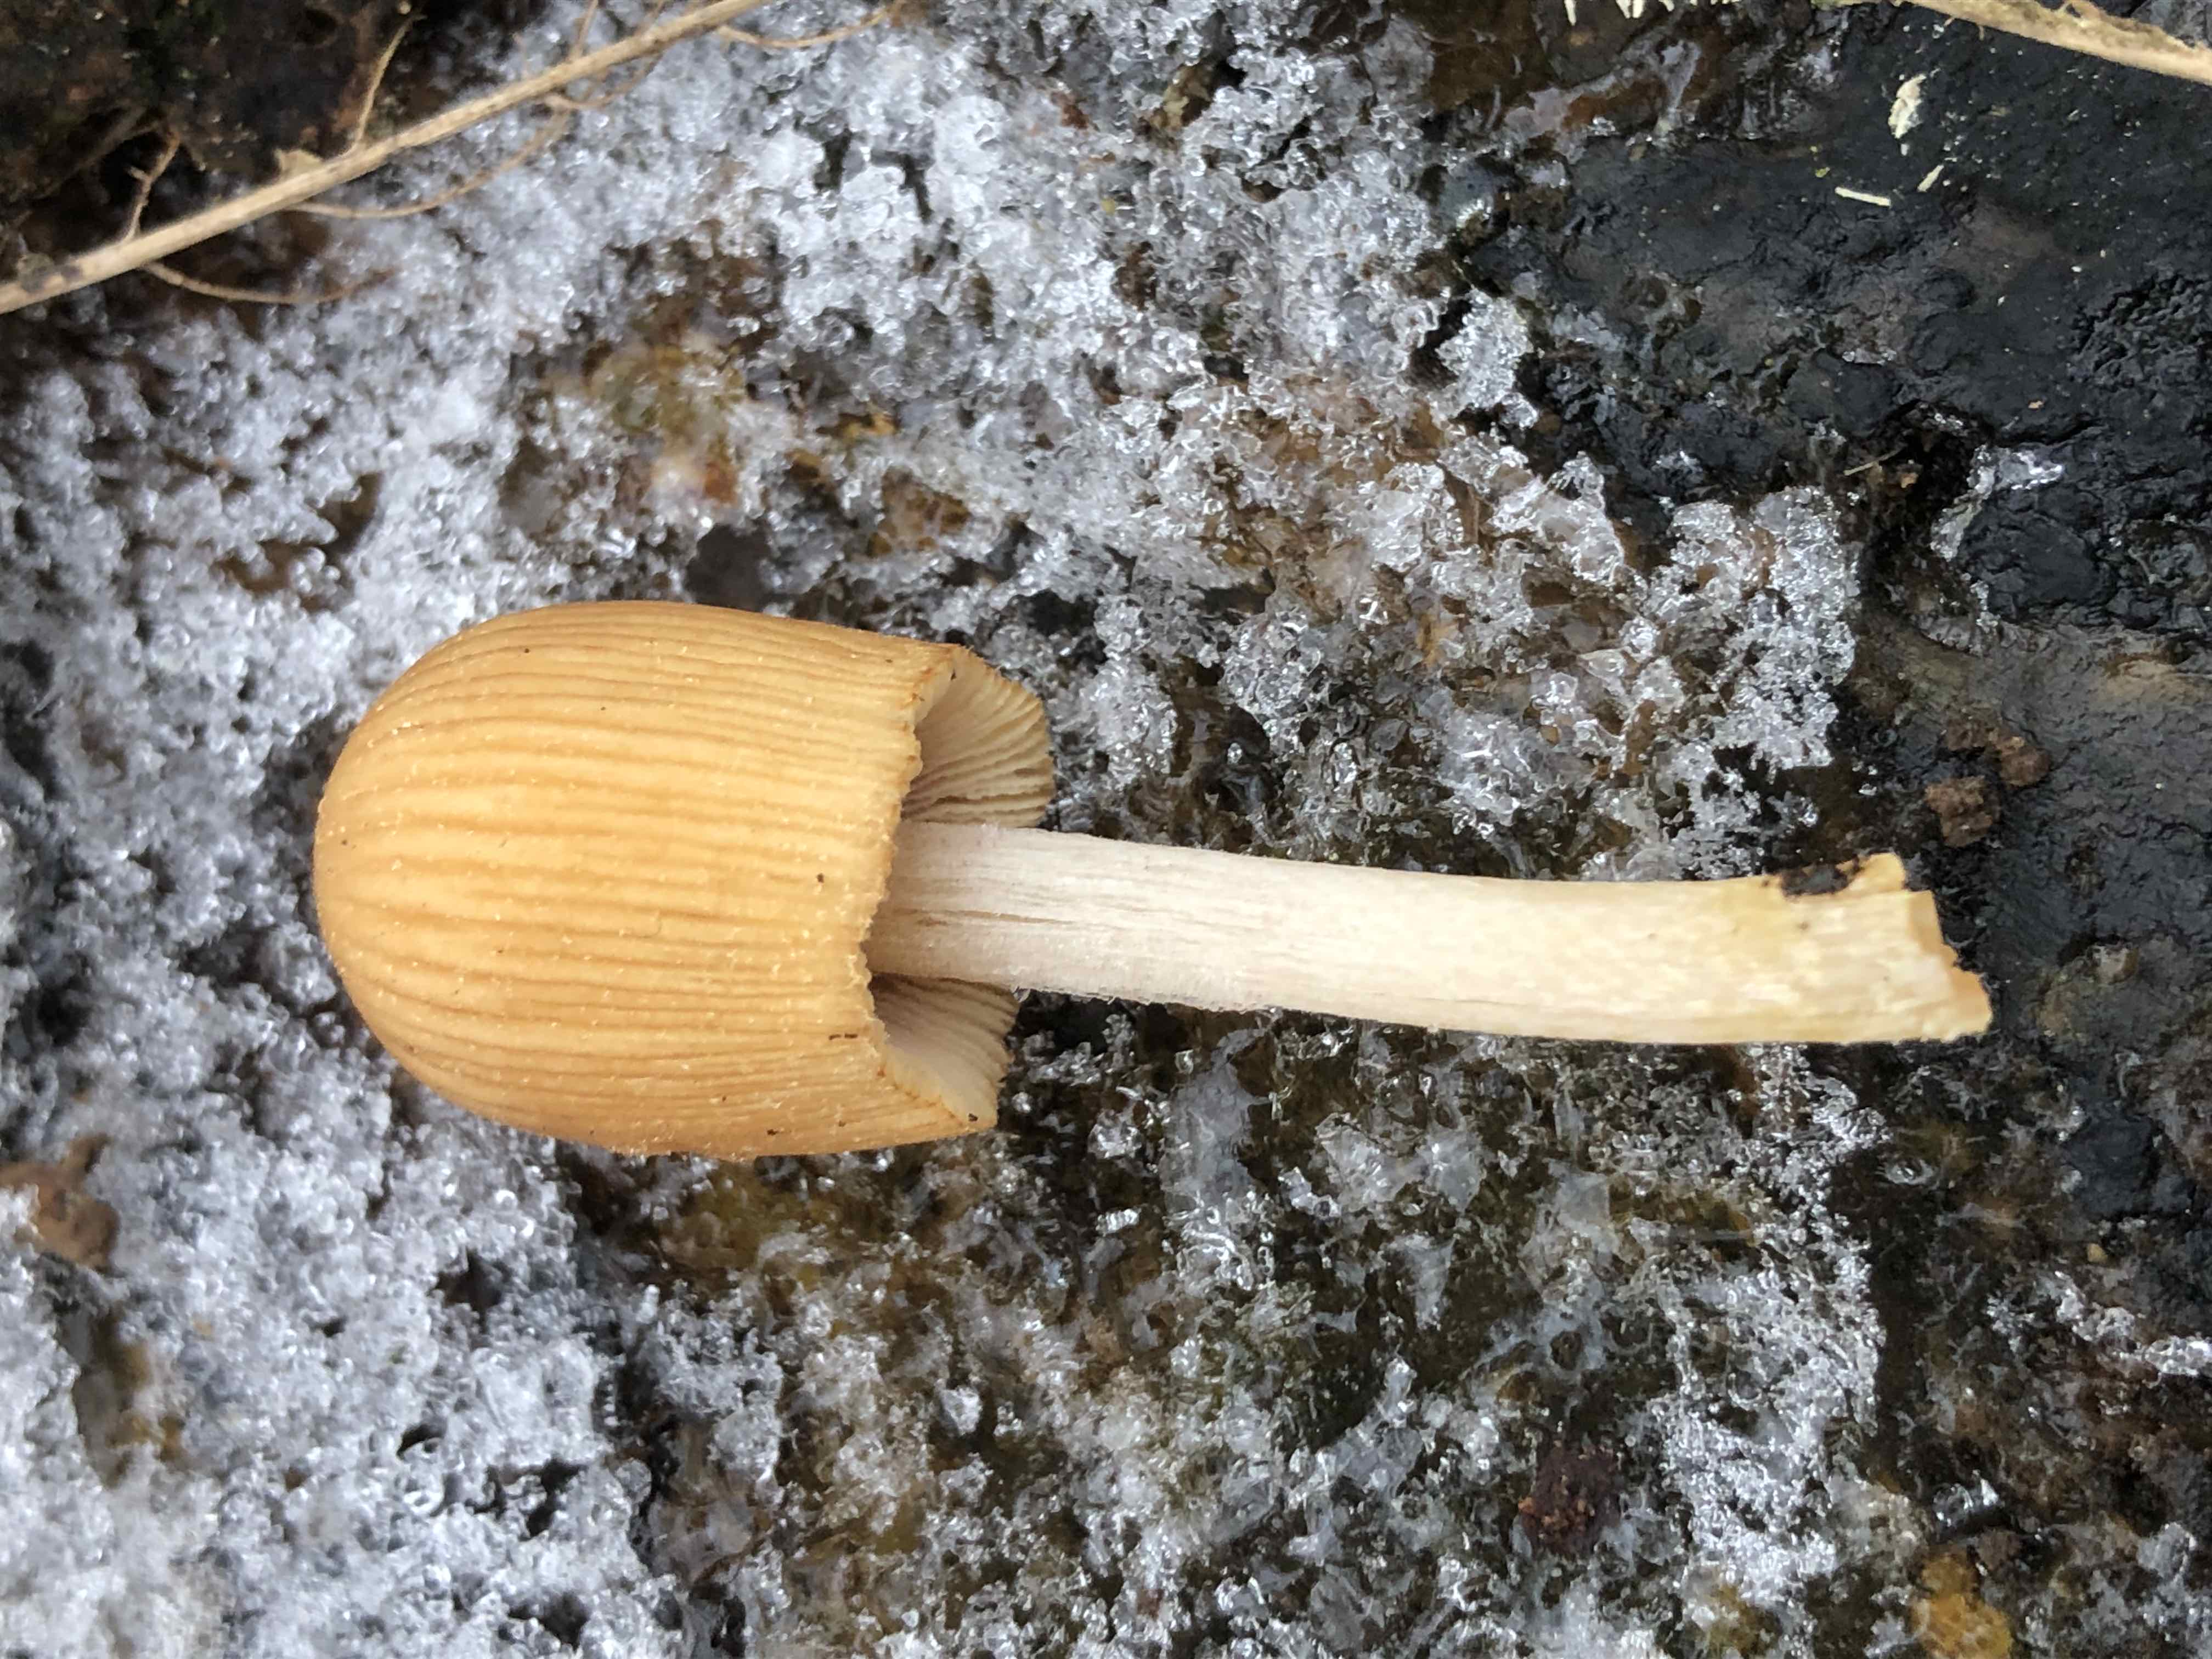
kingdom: Fungi
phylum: Basidiomycota
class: Agaricomycetes
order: Agaricales
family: Psathyrellaceae
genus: Coprinellus
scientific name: Coprinellus micaceus
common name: glimmer-blækhat
